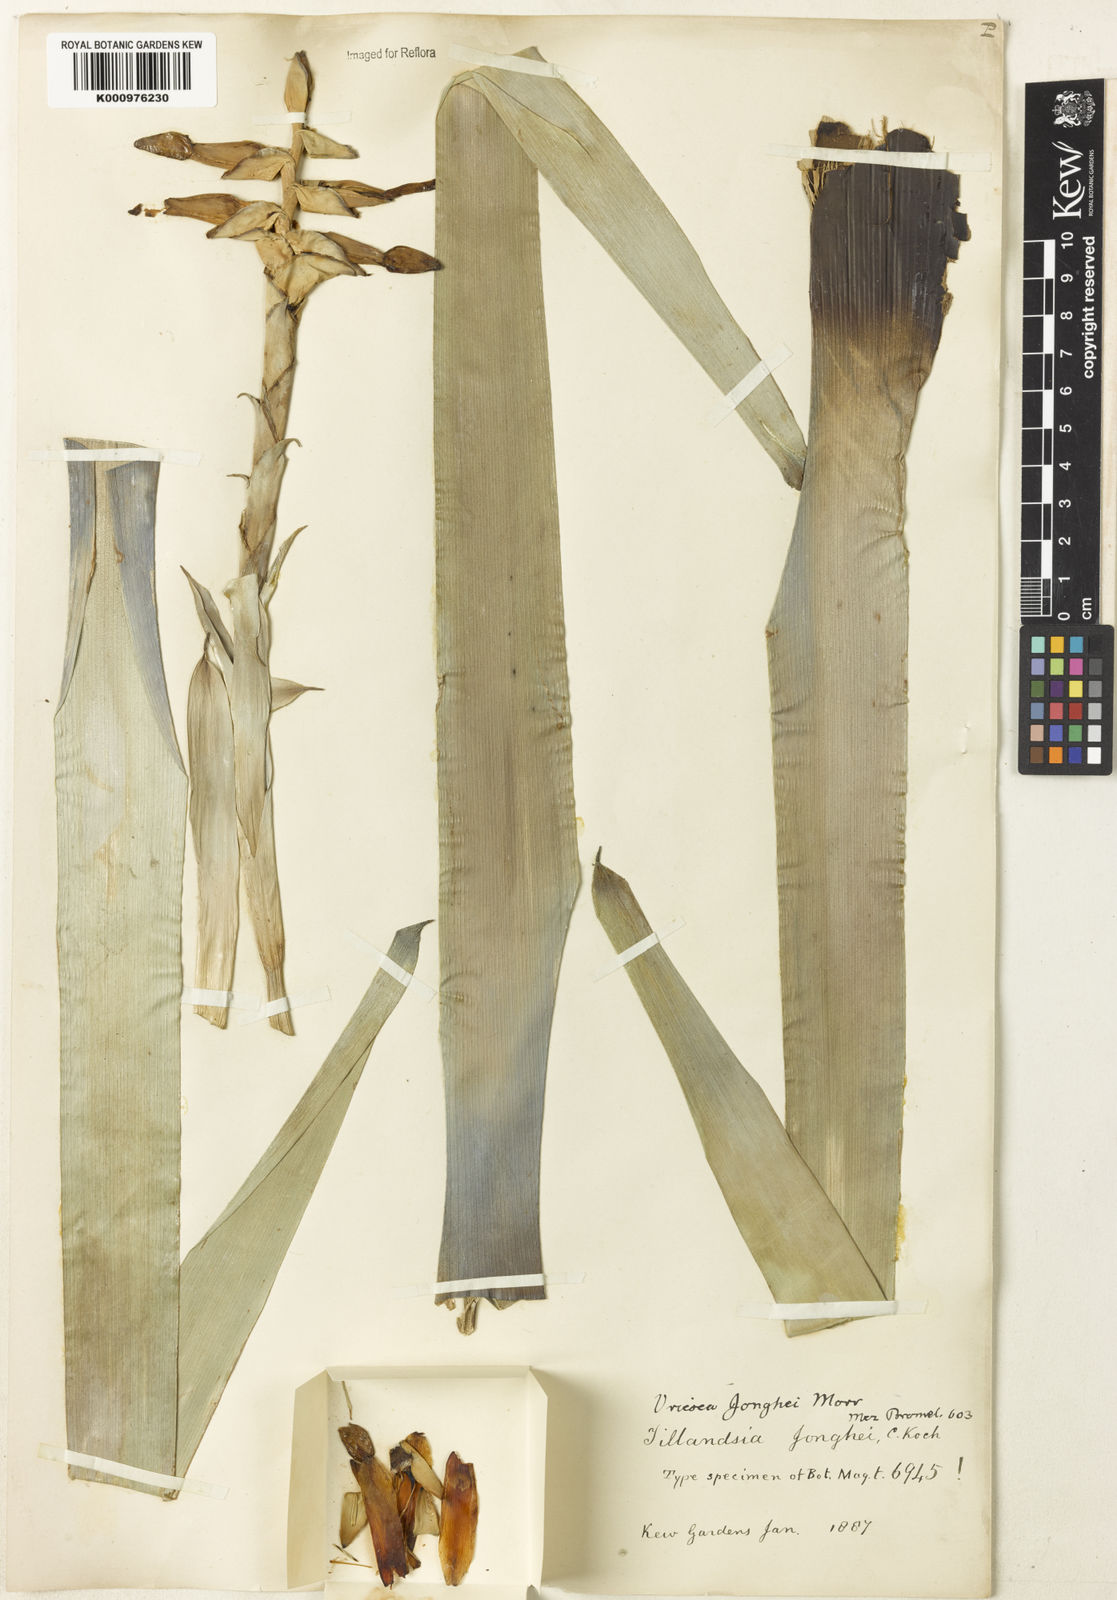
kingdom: Plantae
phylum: Tracheophyta
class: Liliopsida
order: Poales
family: Bromeliaceae
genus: Vriesea
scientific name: Vriesea jonghei
